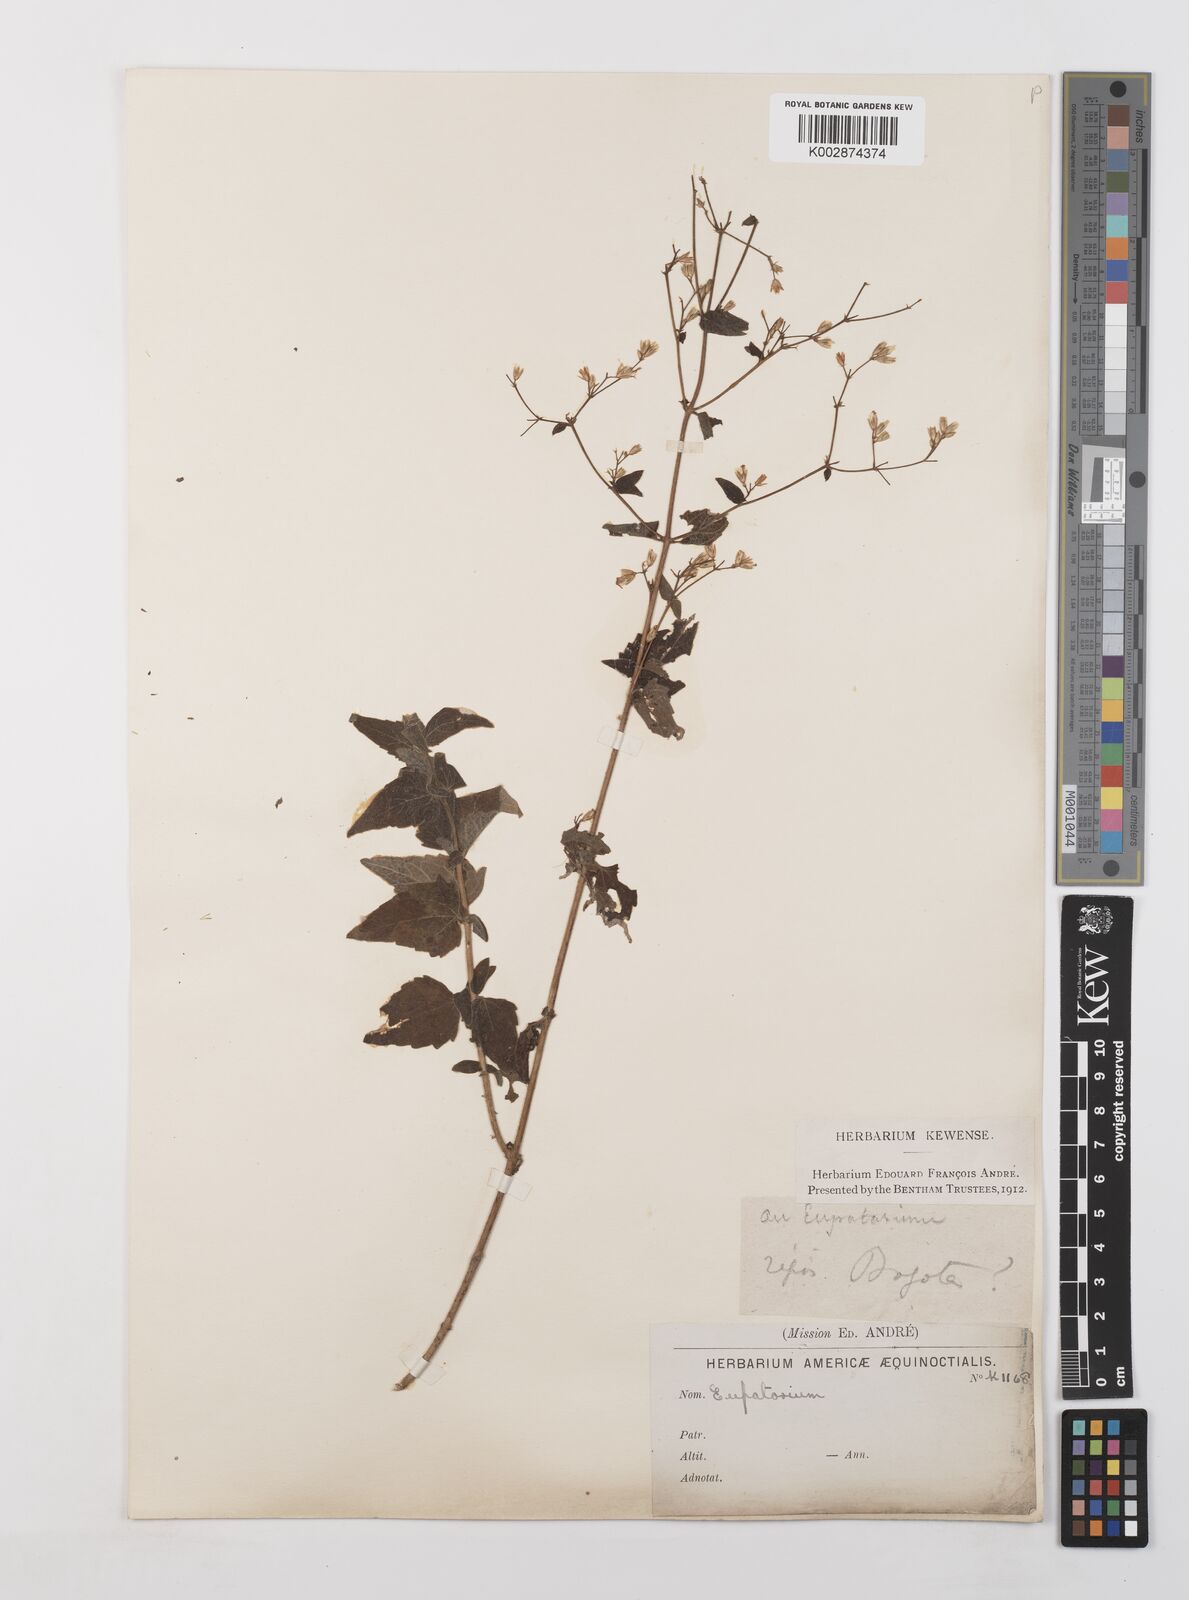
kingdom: Plantae
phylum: Tracheophyta
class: Magnoliopsida
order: Asterales
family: Asteraceae
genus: Condylidium
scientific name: Condylidium iresinoides
